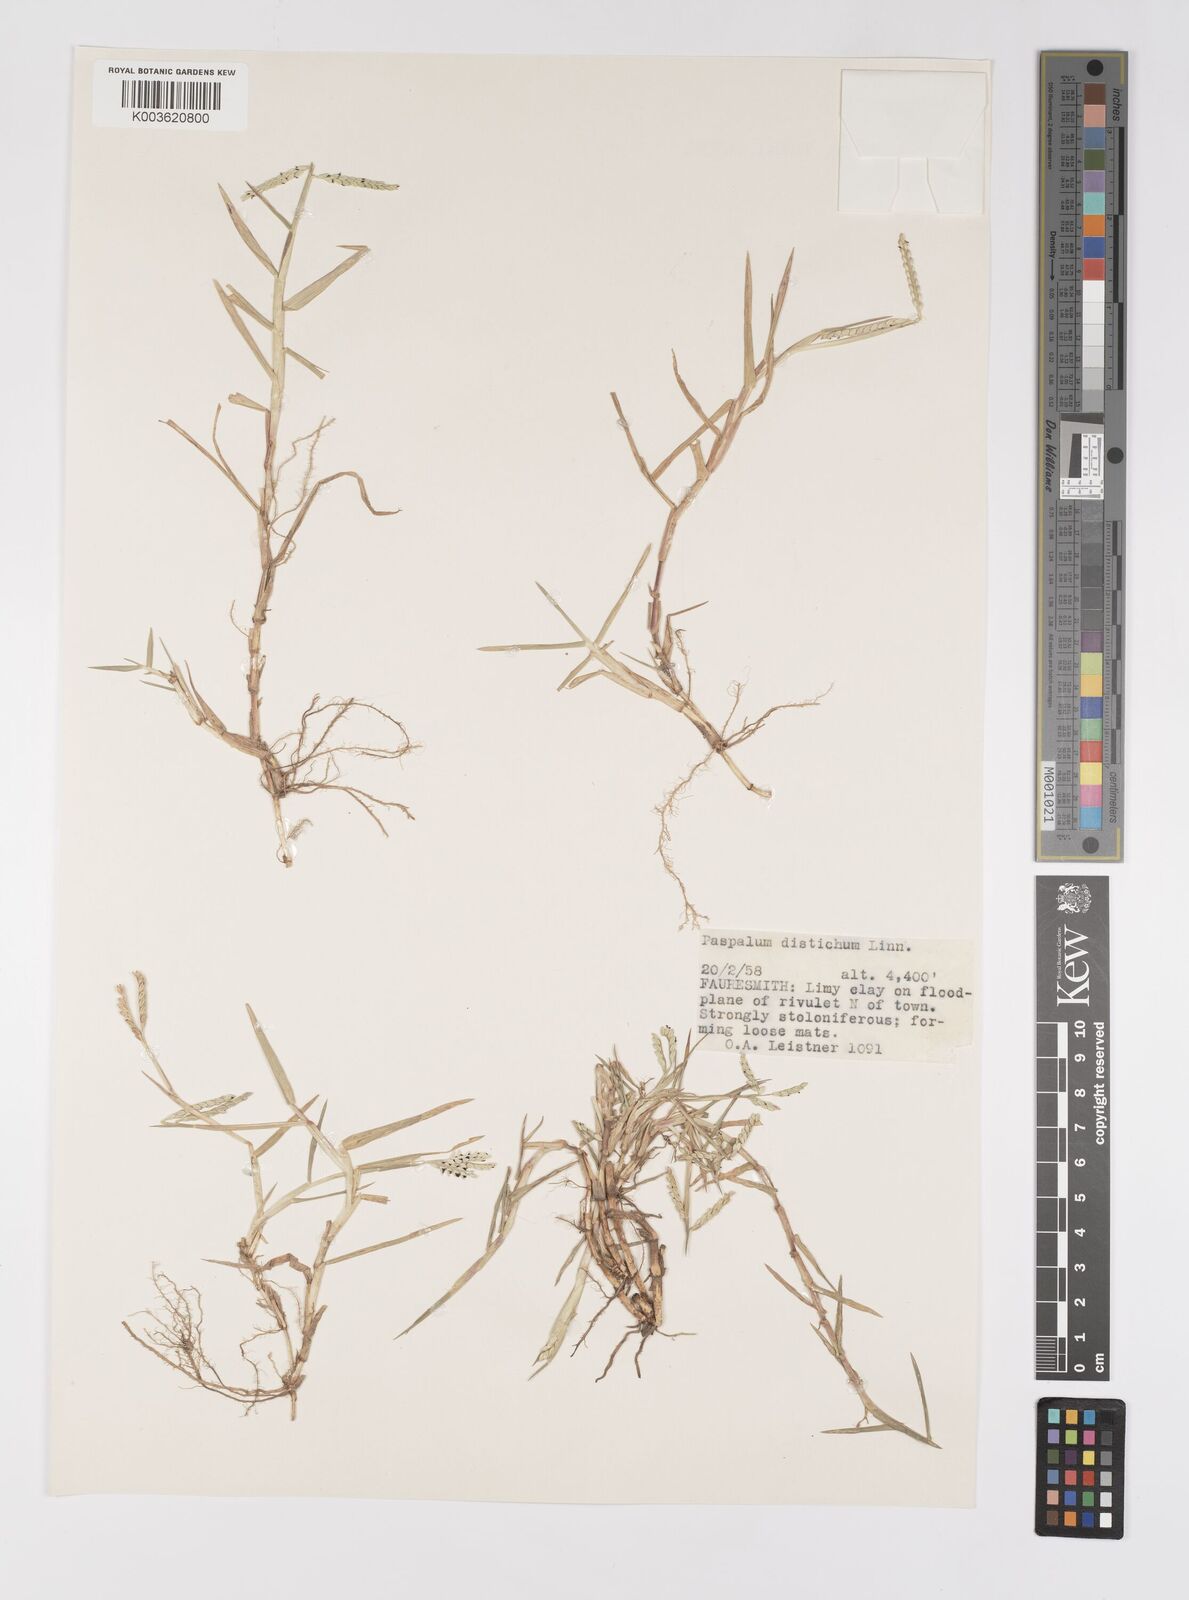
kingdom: Plantae
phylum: Tracheophyta
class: Liliopsida
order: Poales
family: Poaceae
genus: Paspalum
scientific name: Paspalum distichum
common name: Knotgrass
